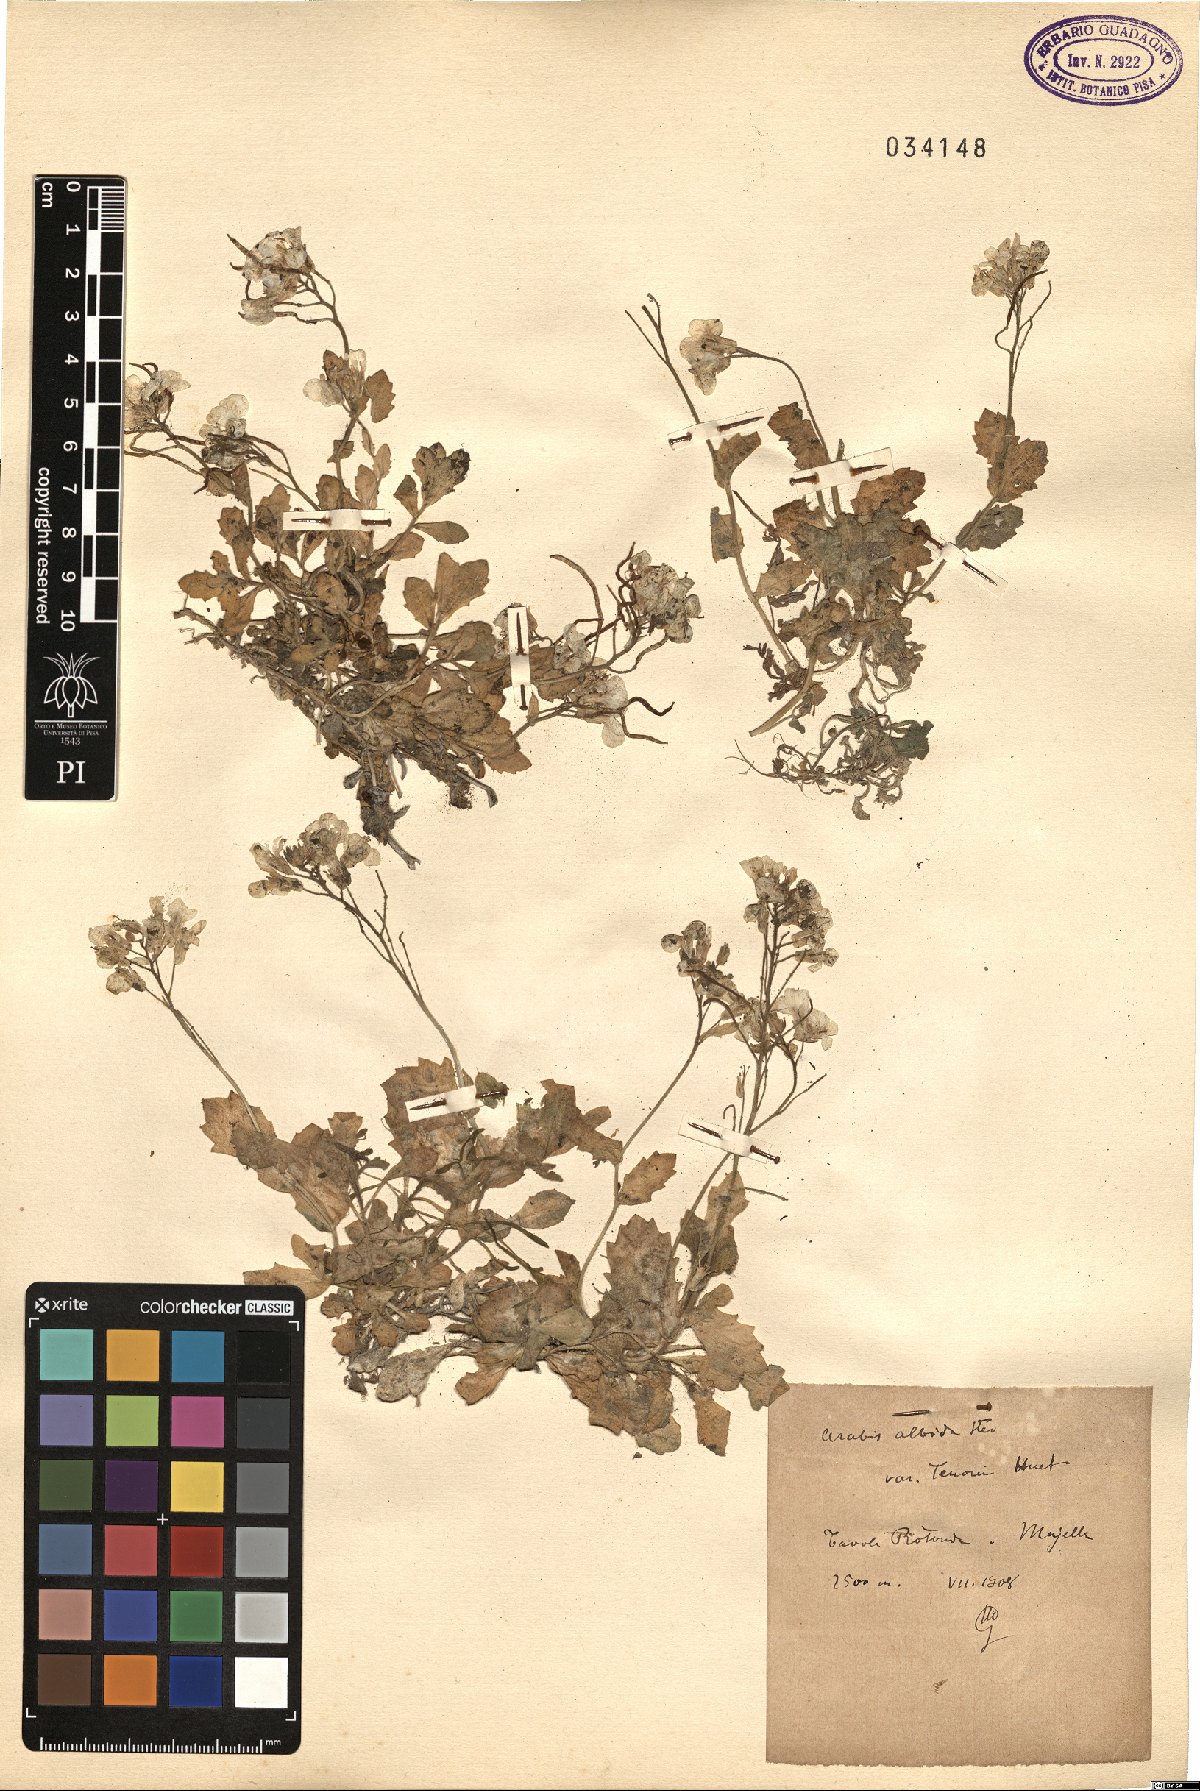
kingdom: Plantae
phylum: Tracheophyta
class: Magnoliopsida
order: Brassicales
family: Brassicaceae
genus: Arabis
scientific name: Arabis
